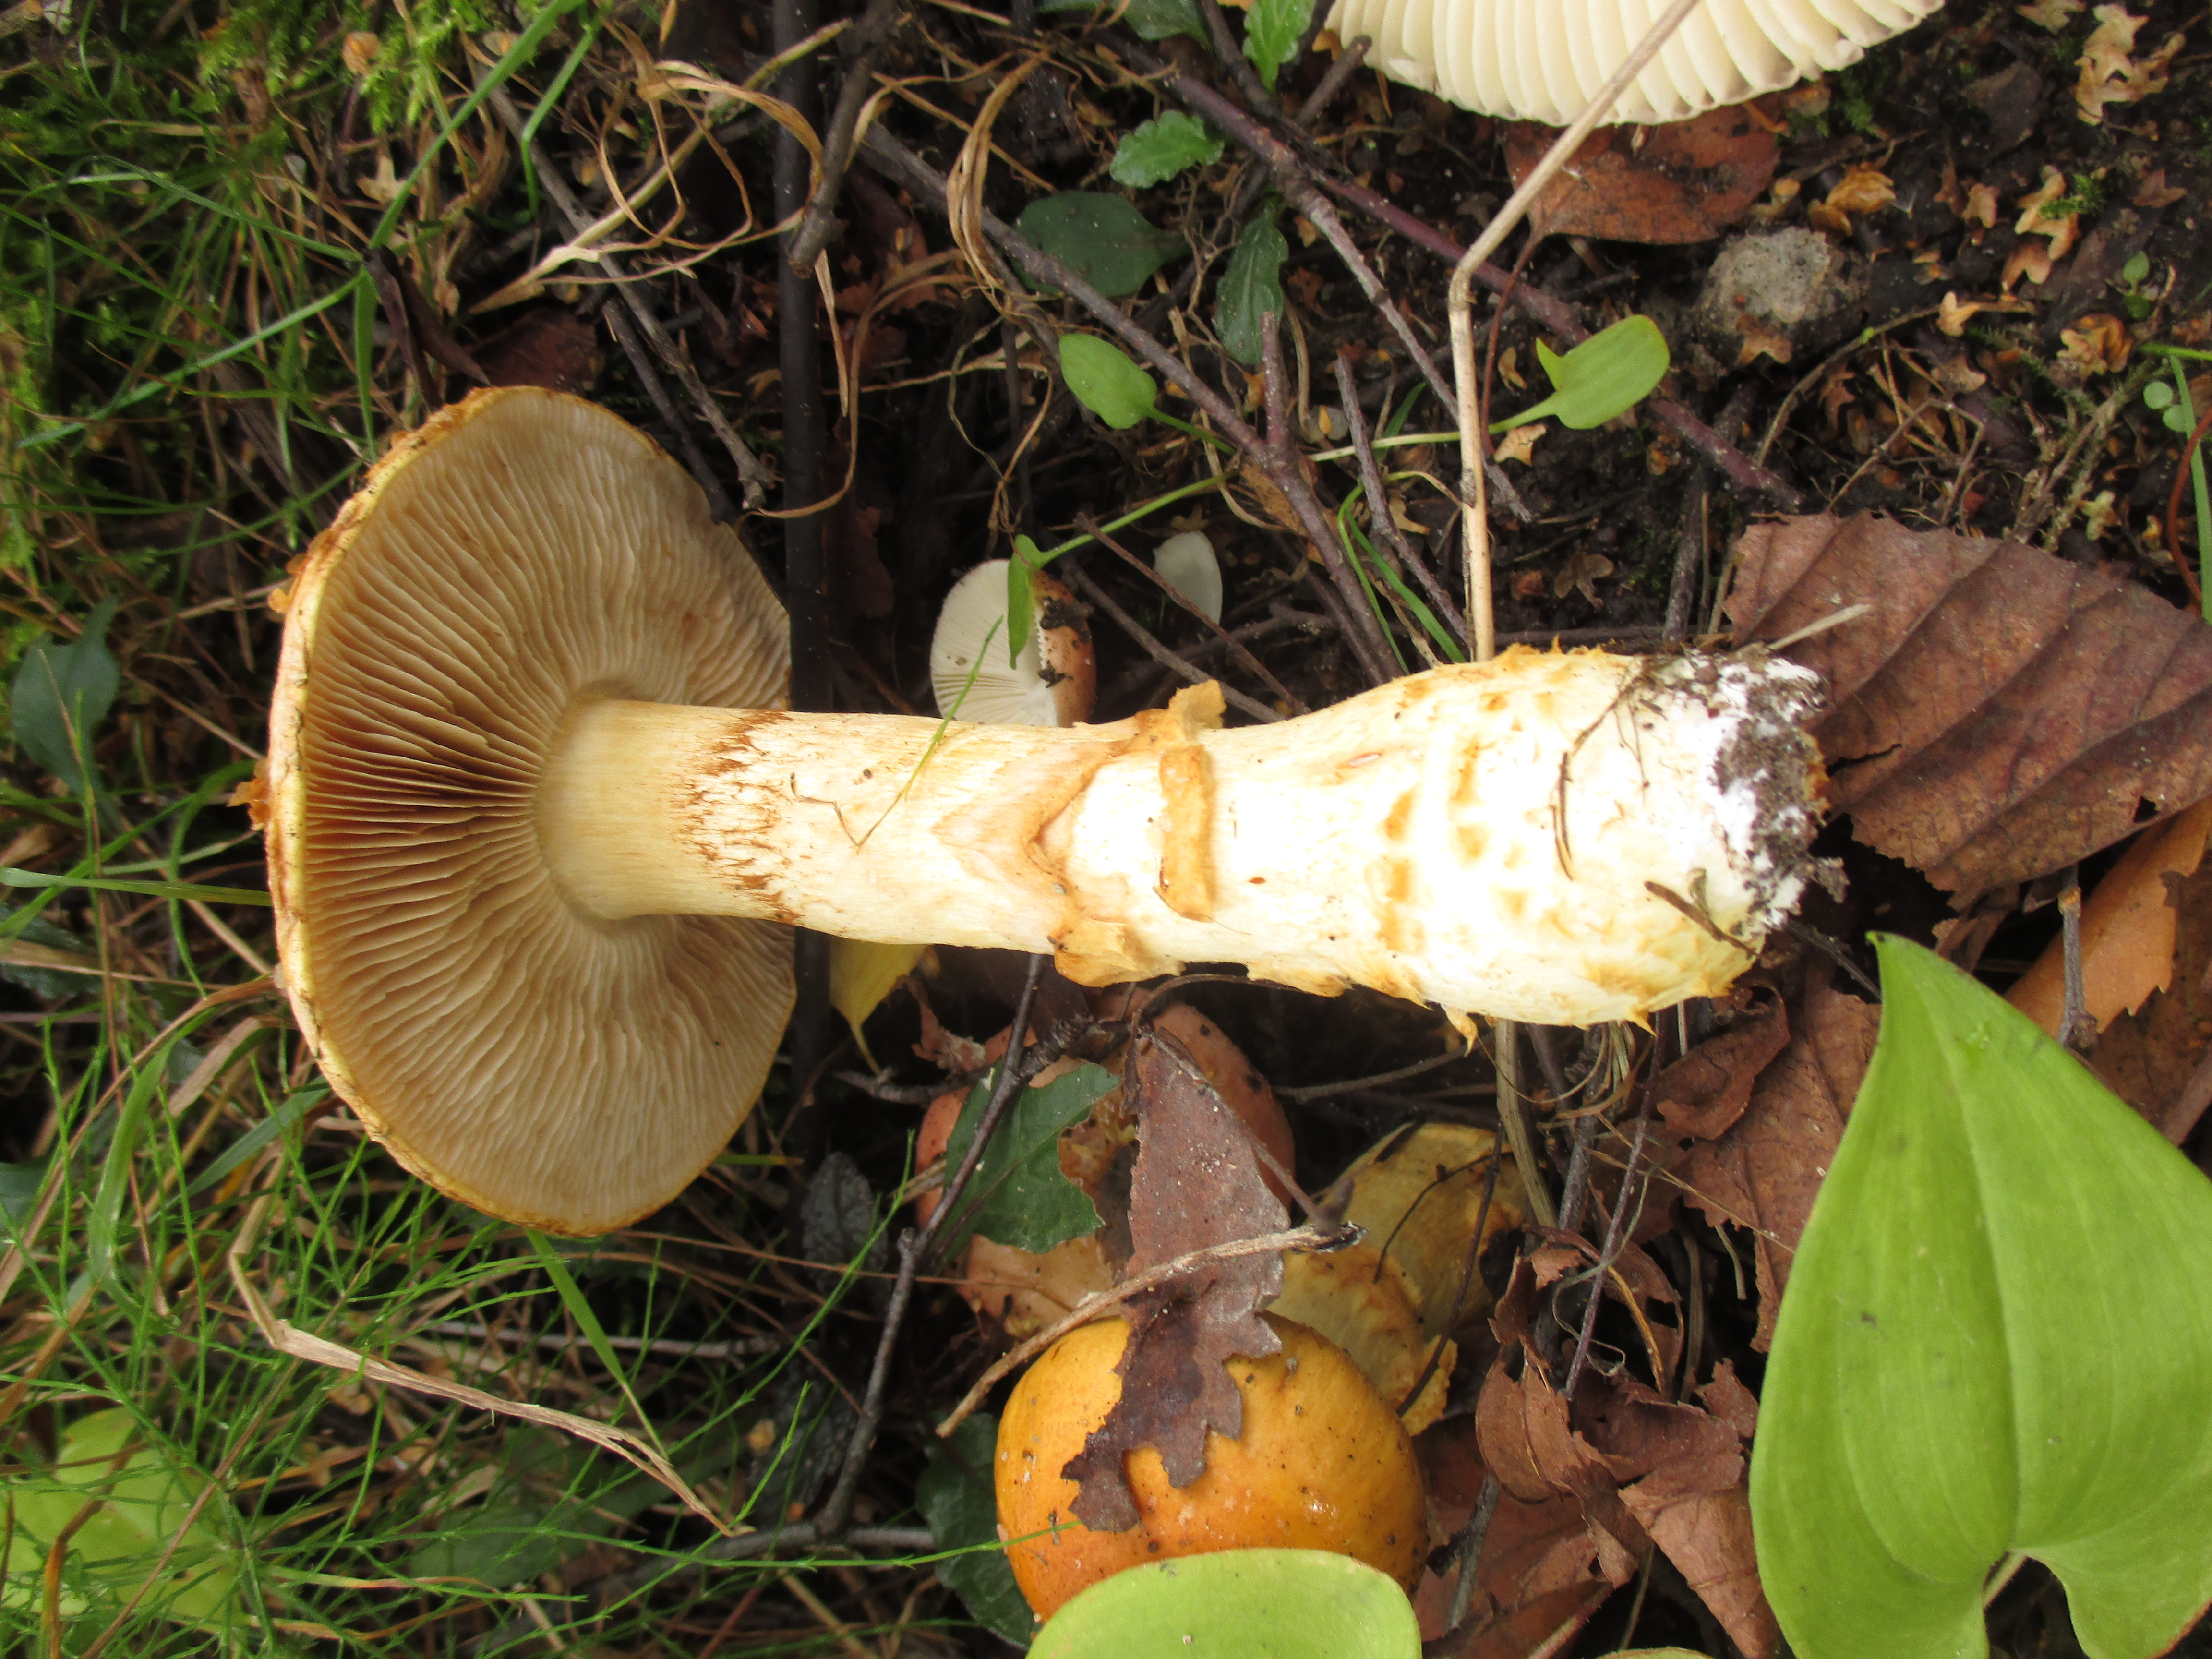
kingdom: Fungi
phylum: Basidiomycota
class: Agaricomycetes
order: Agaricales
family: Cortinariaceae
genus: Phlegmacium
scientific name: Phlegmacium triumphans
